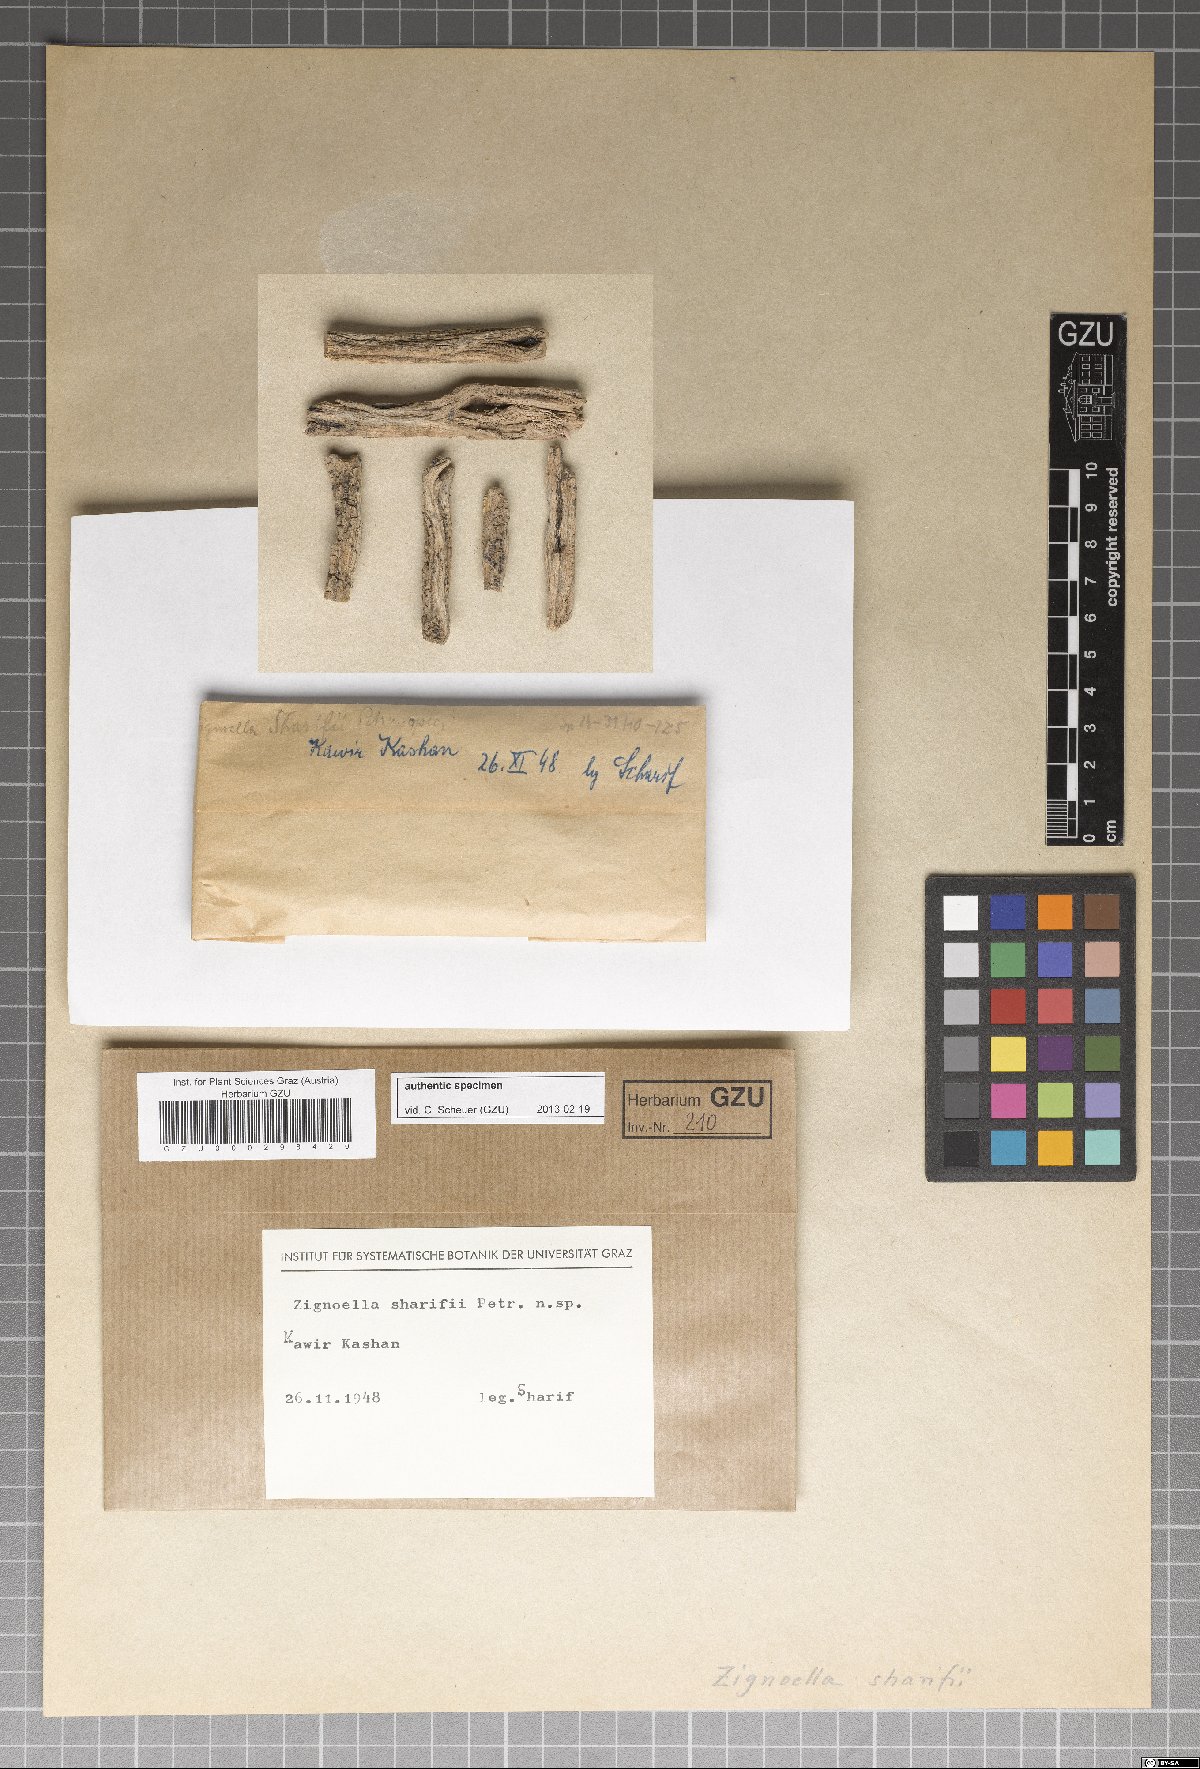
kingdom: Fungi
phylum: Ascomycota
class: Sordariomycetes
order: Chaetosphaeriales
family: Chaetosphaeriaceae
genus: Zignoella
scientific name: Zignoella sharifii
